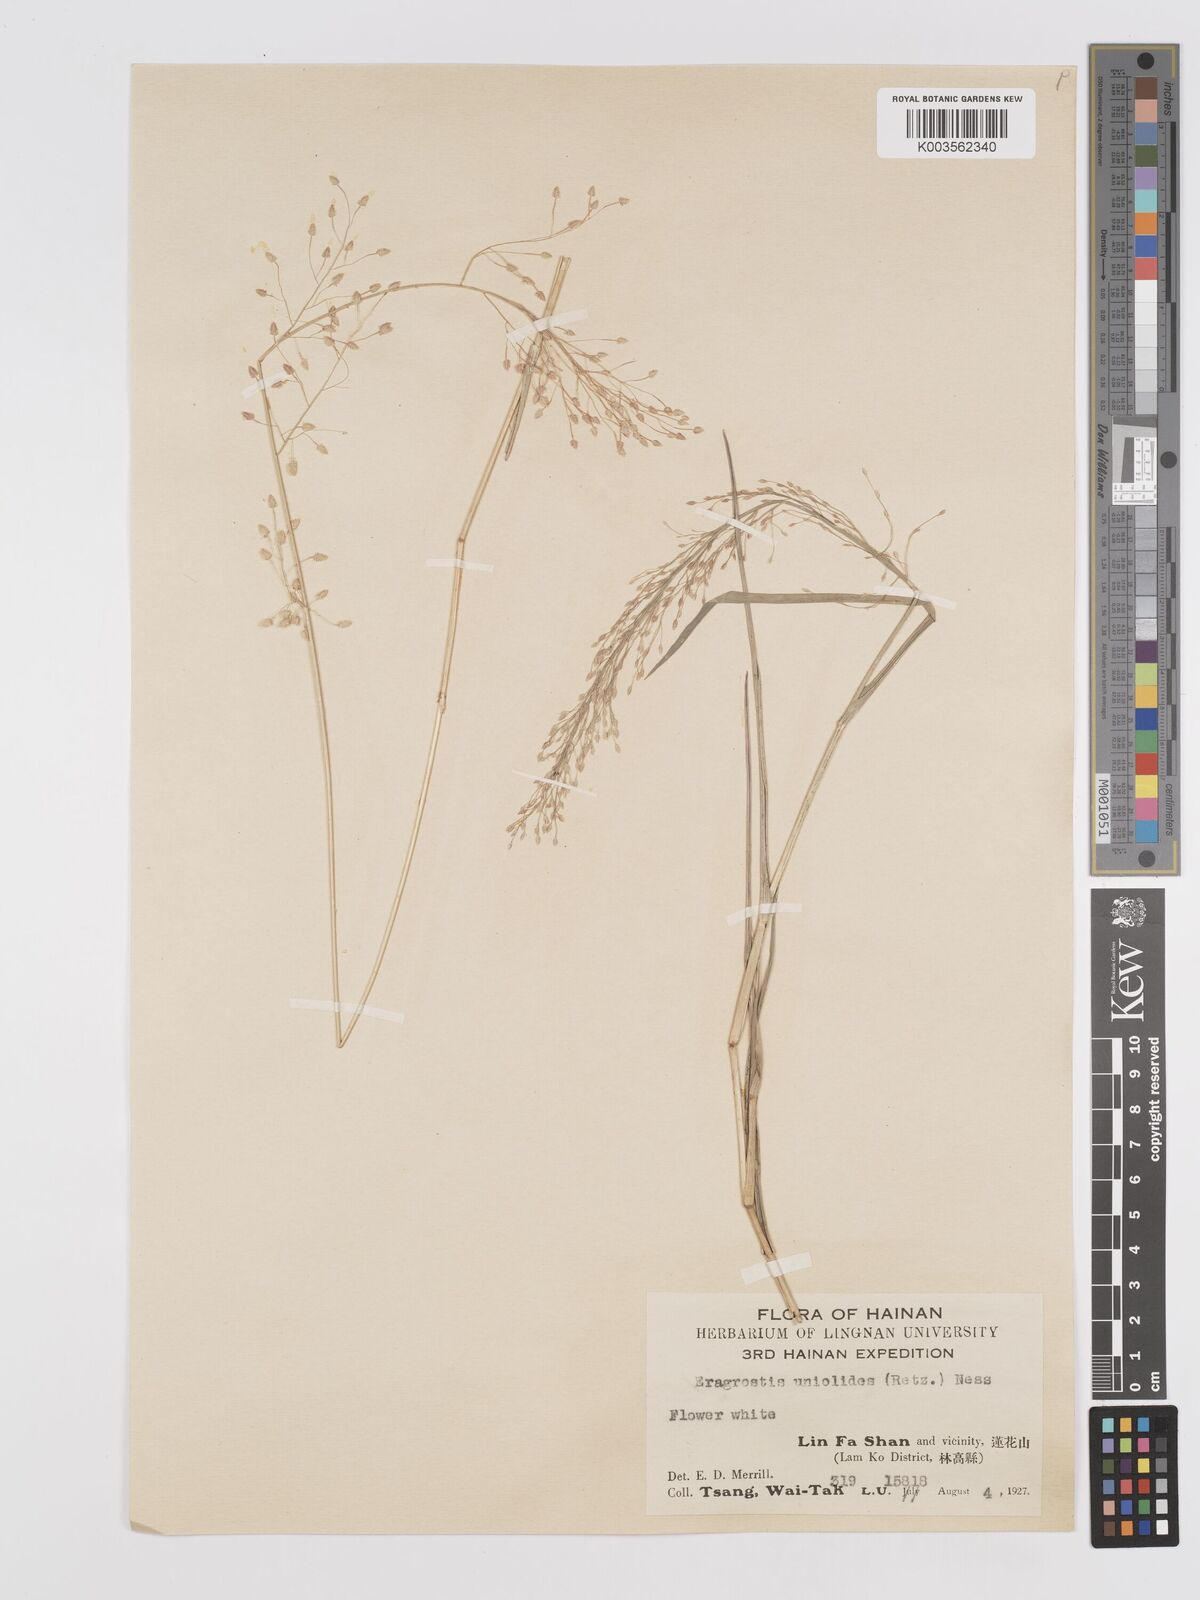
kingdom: Plantae
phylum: Tracheophyta
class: Liliopsida
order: Poales
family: Poaceae
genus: Eragrostis
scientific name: Eragrostis unioloides
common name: Chinese lovegrass
